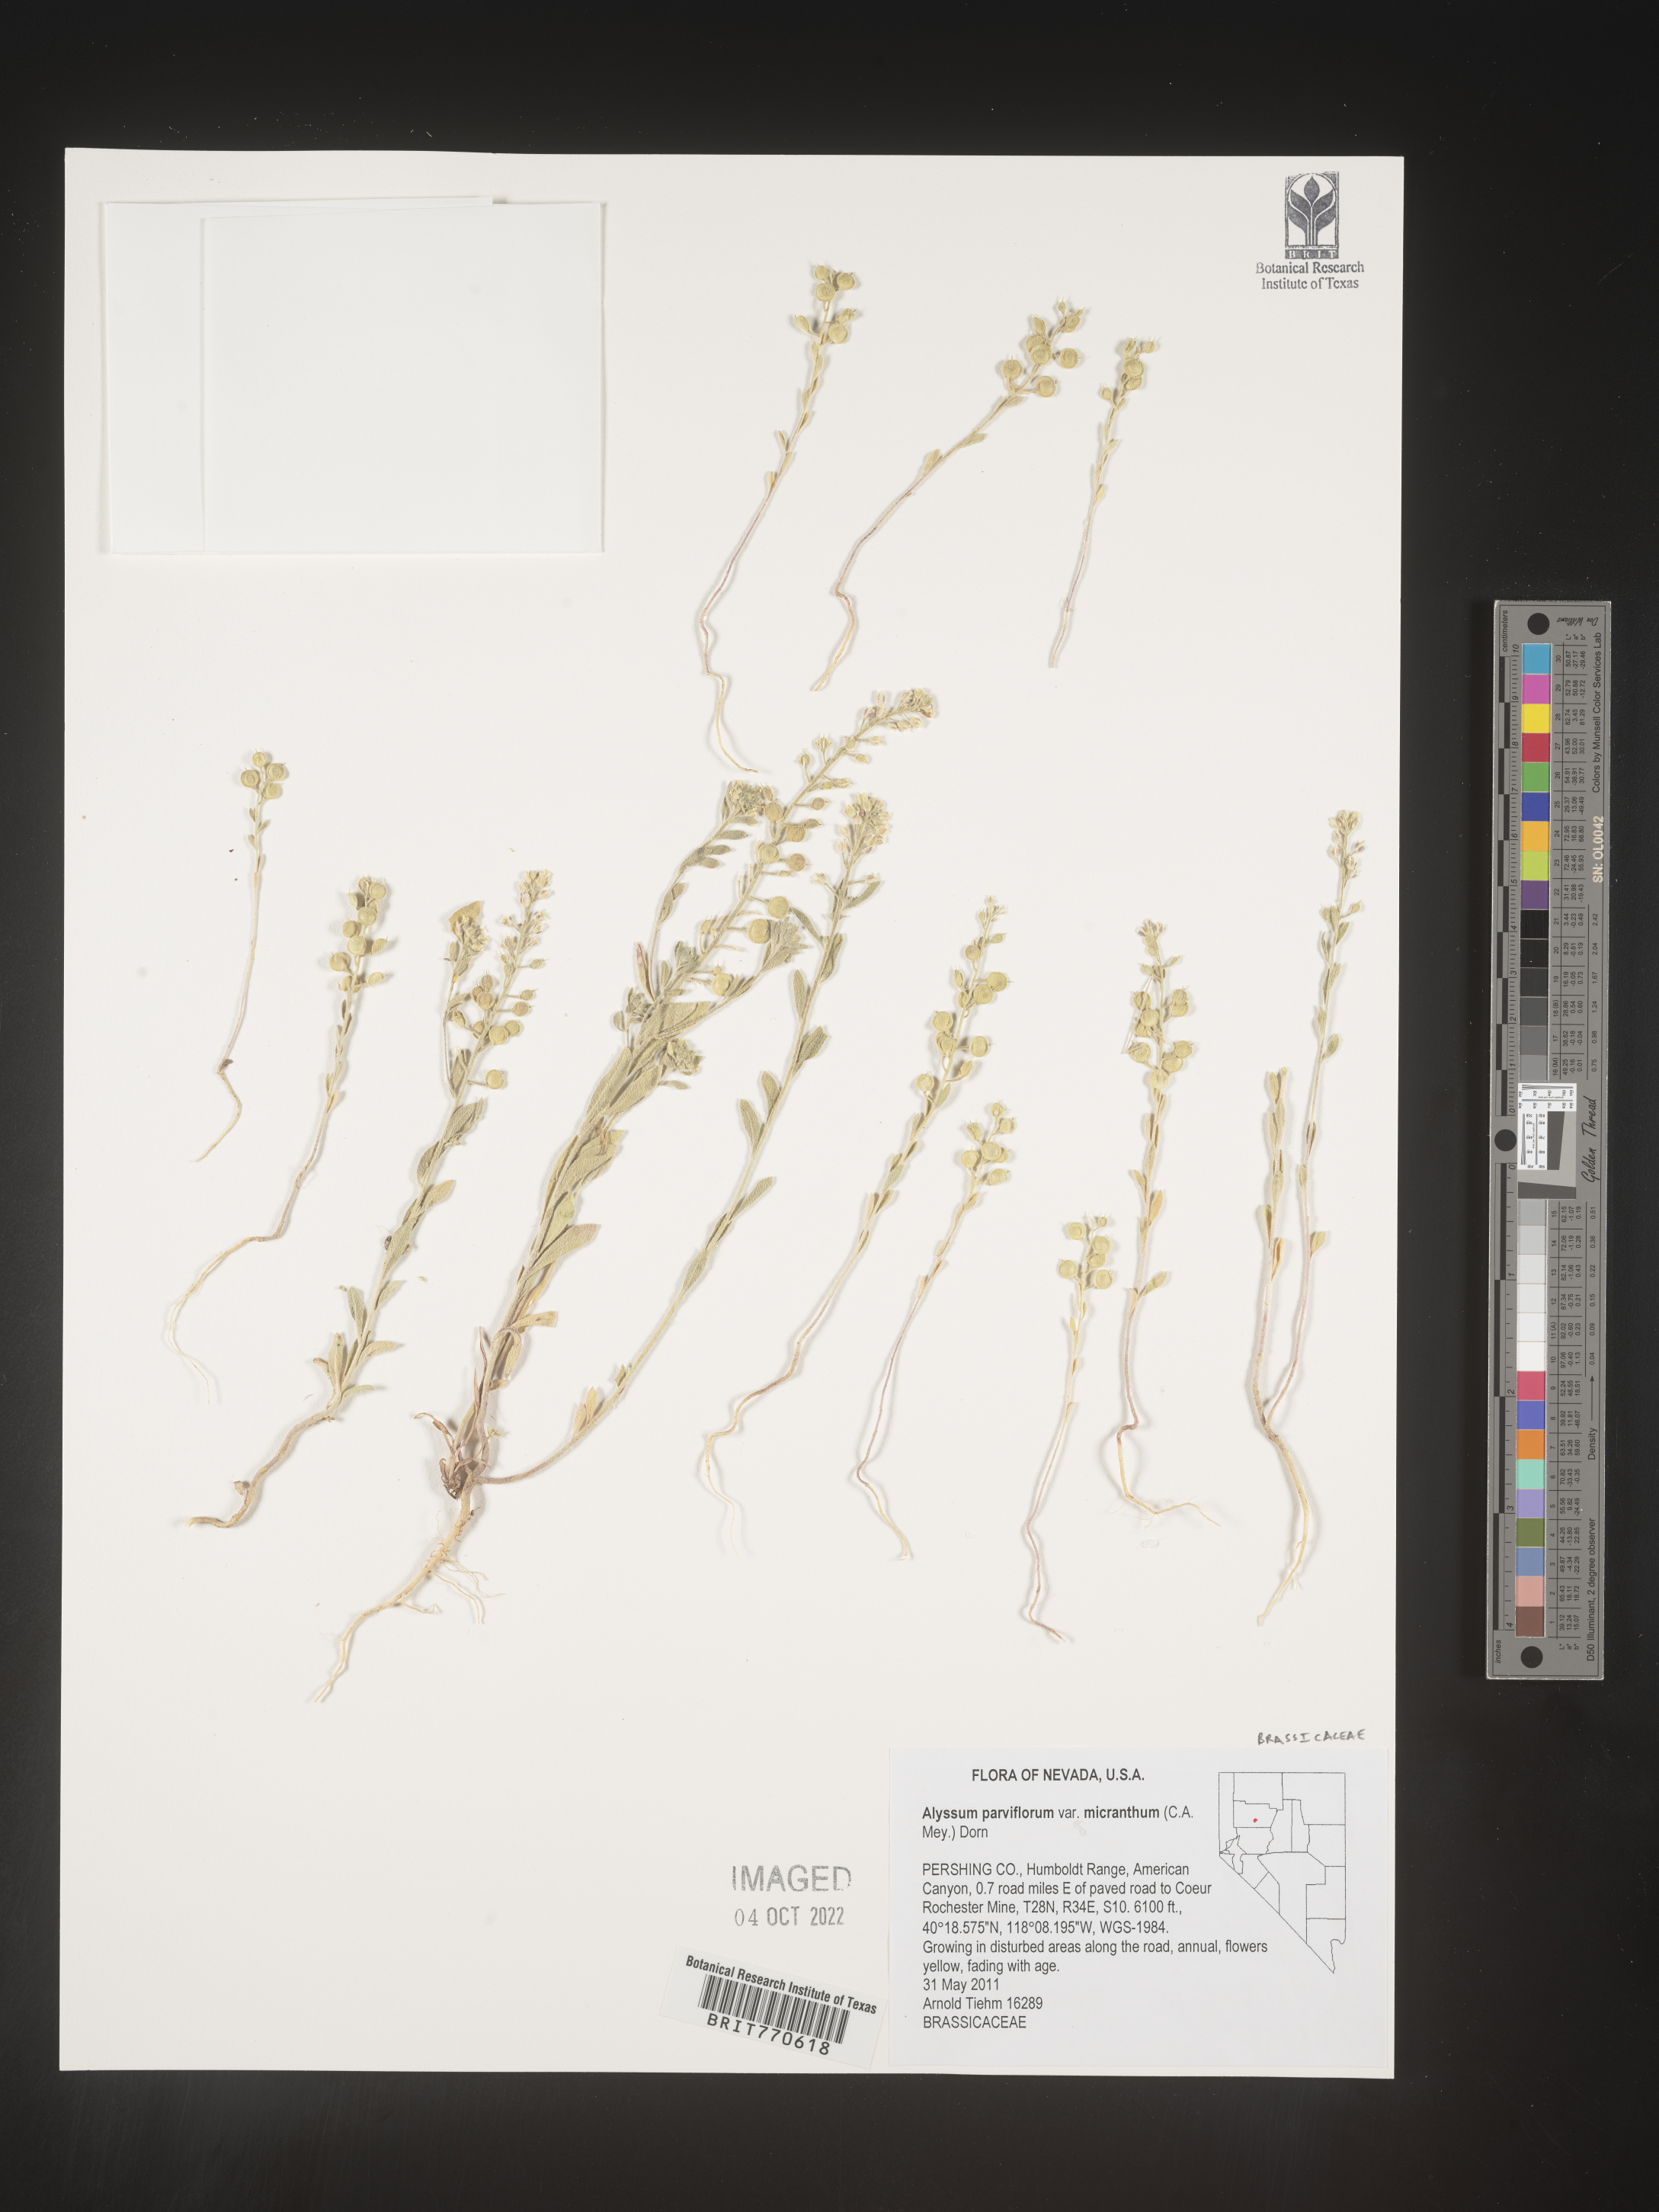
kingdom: Plantae
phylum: Tracheophyta
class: Magnoliopsida
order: Brassicales
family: Brassicaceae
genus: Alyssum
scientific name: Alyssum
